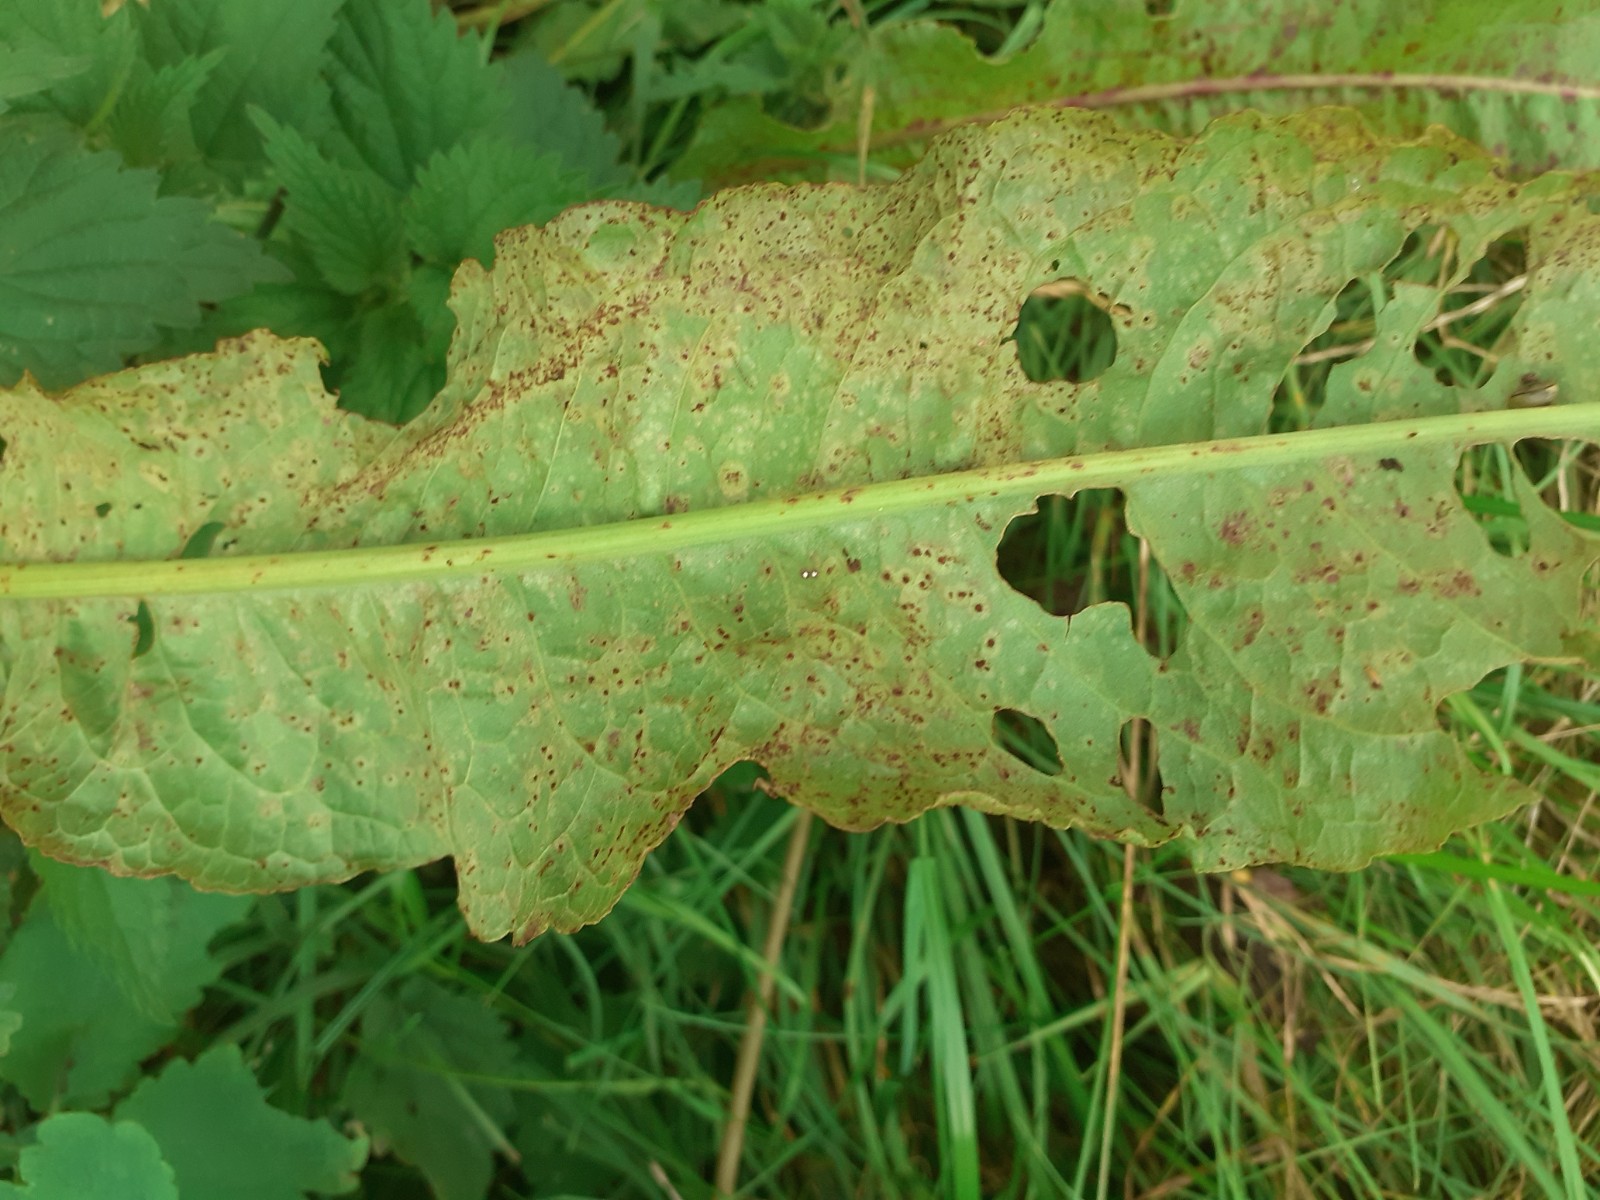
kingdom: Fungi
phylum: Basidiomycota
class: Pucciniomycetes
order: Pucciniales
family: Pucciniaceae
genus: Uromyces
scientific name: Uromyces rumicis
